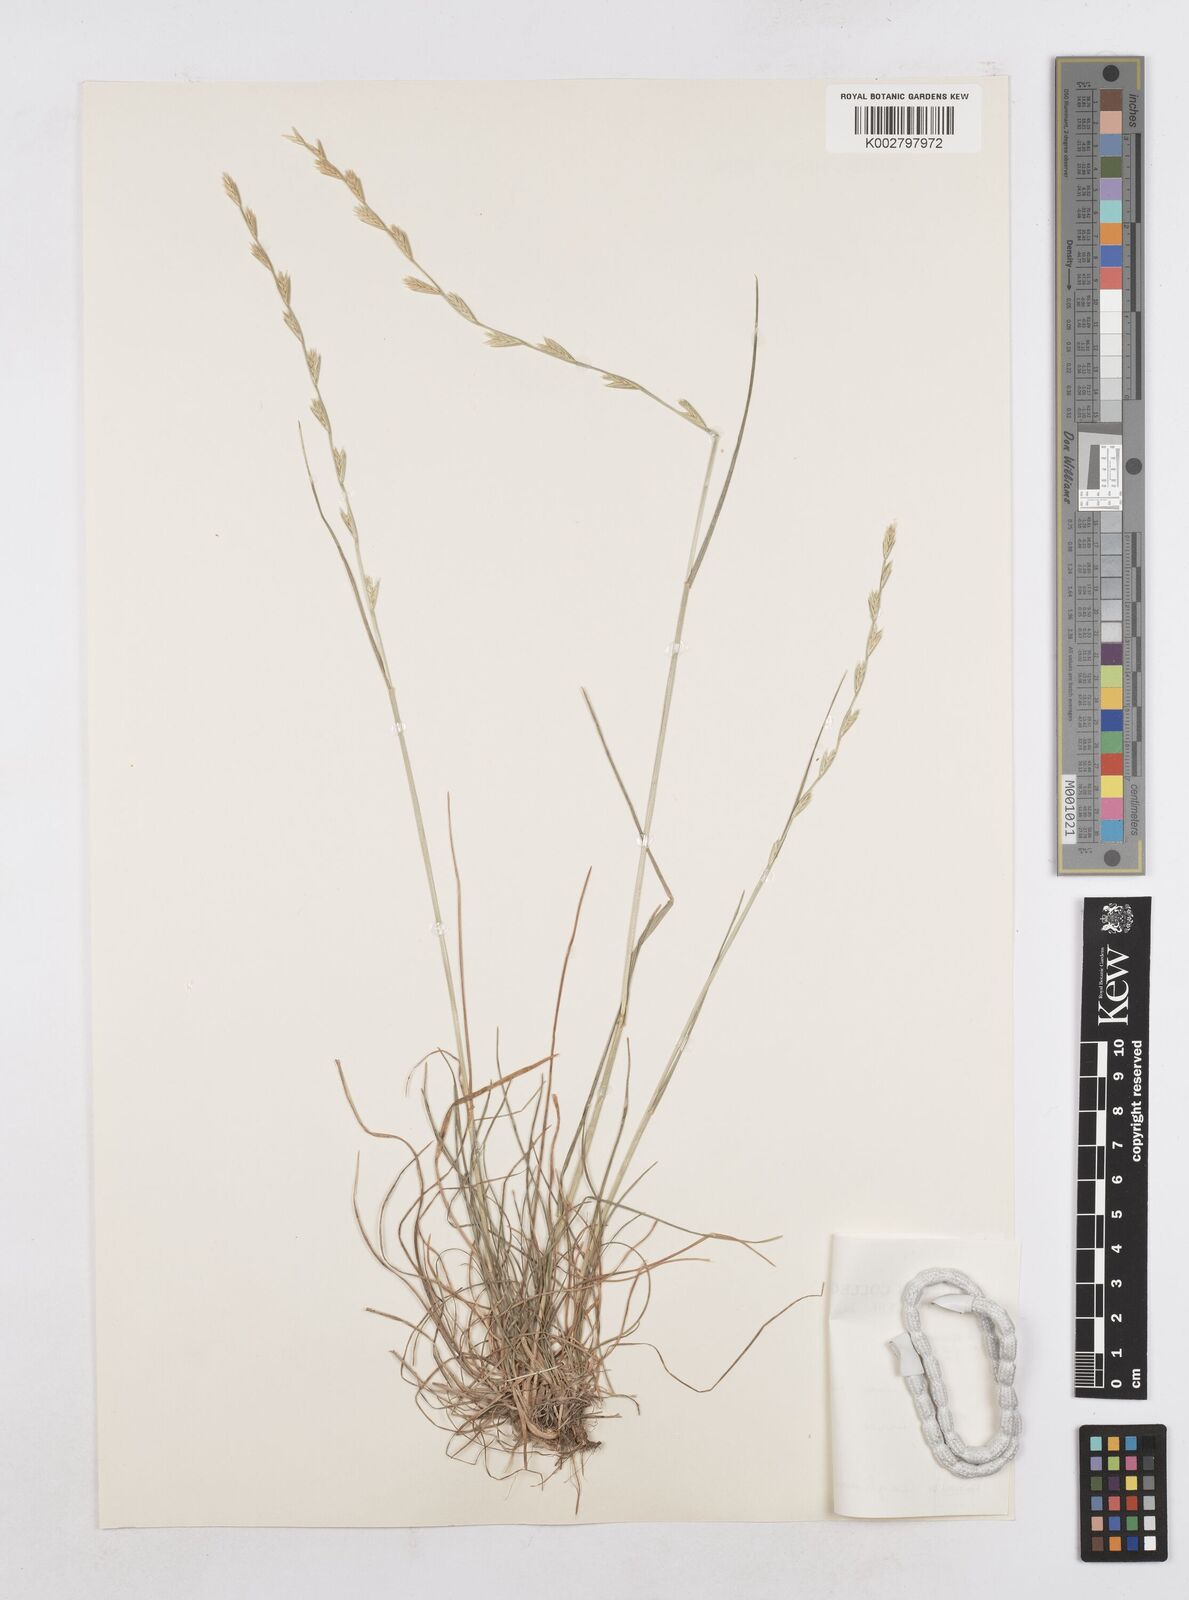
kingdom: Plantae
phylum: Tracheophyta
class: Liliopsida
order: Poales
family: Poaceae
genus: Lolium
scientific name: Lolium perenne
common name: Perennial ryegrass
